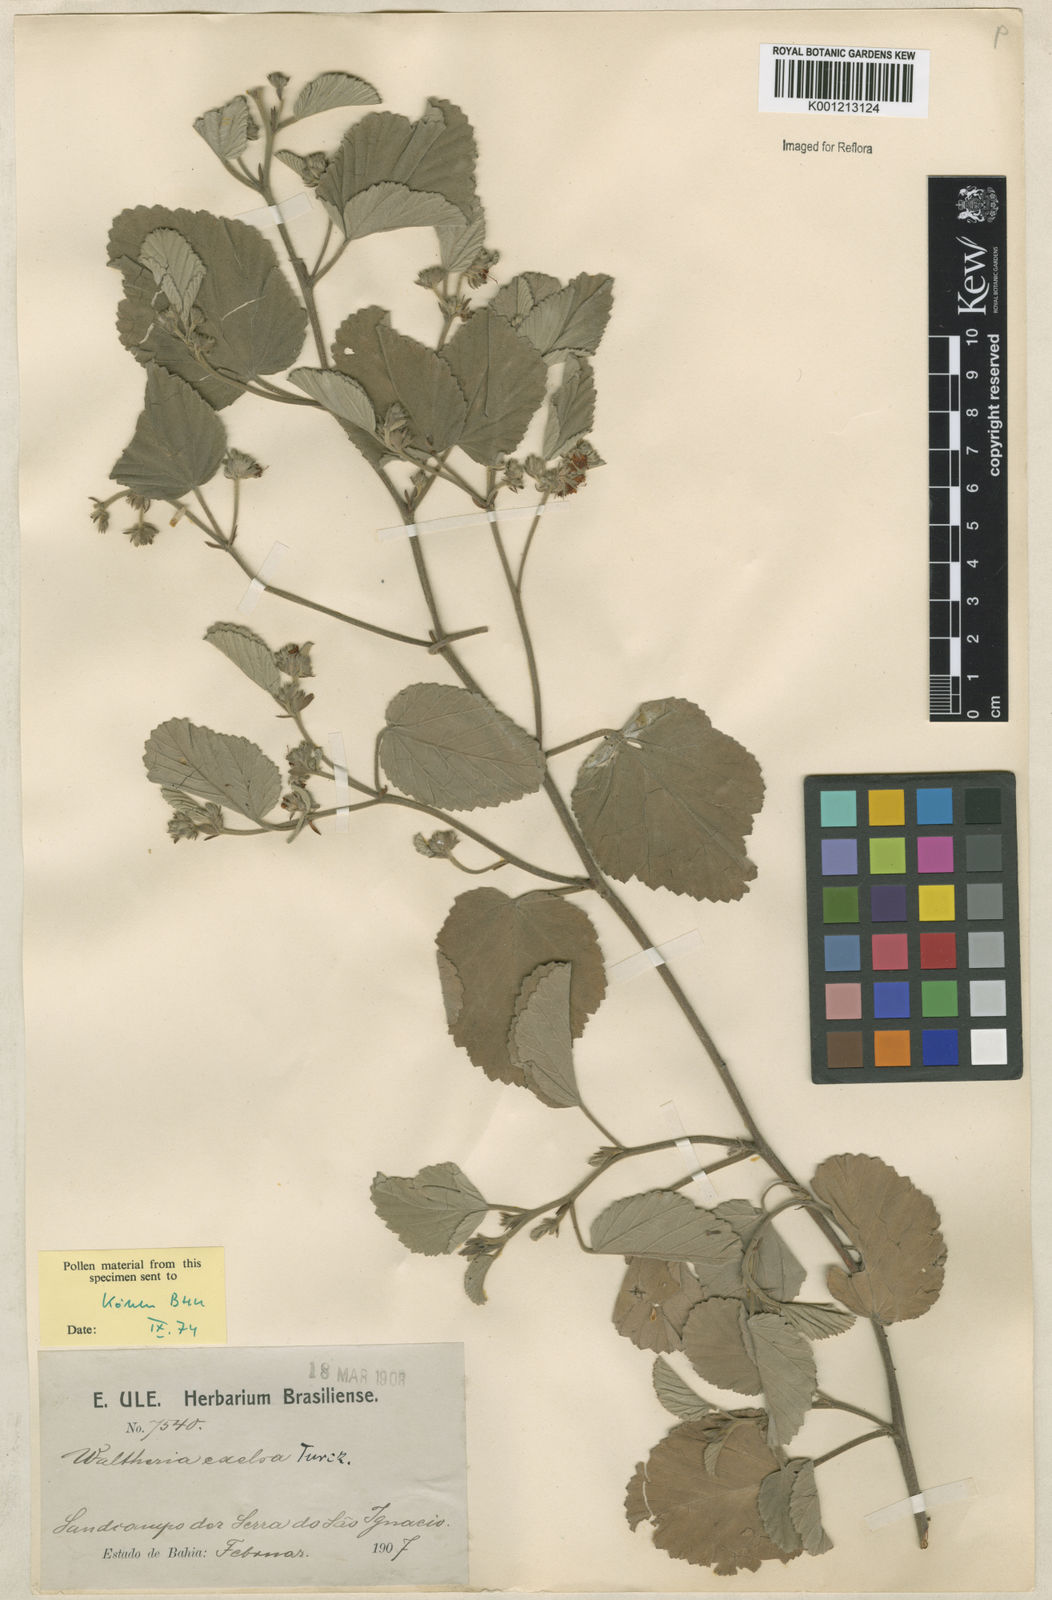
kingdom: Plantae
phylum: Tracheophyta
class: Magnoliopsida
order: Malvales
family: Malvaceae
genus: Waltheria
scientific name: Waltheria excelsa
